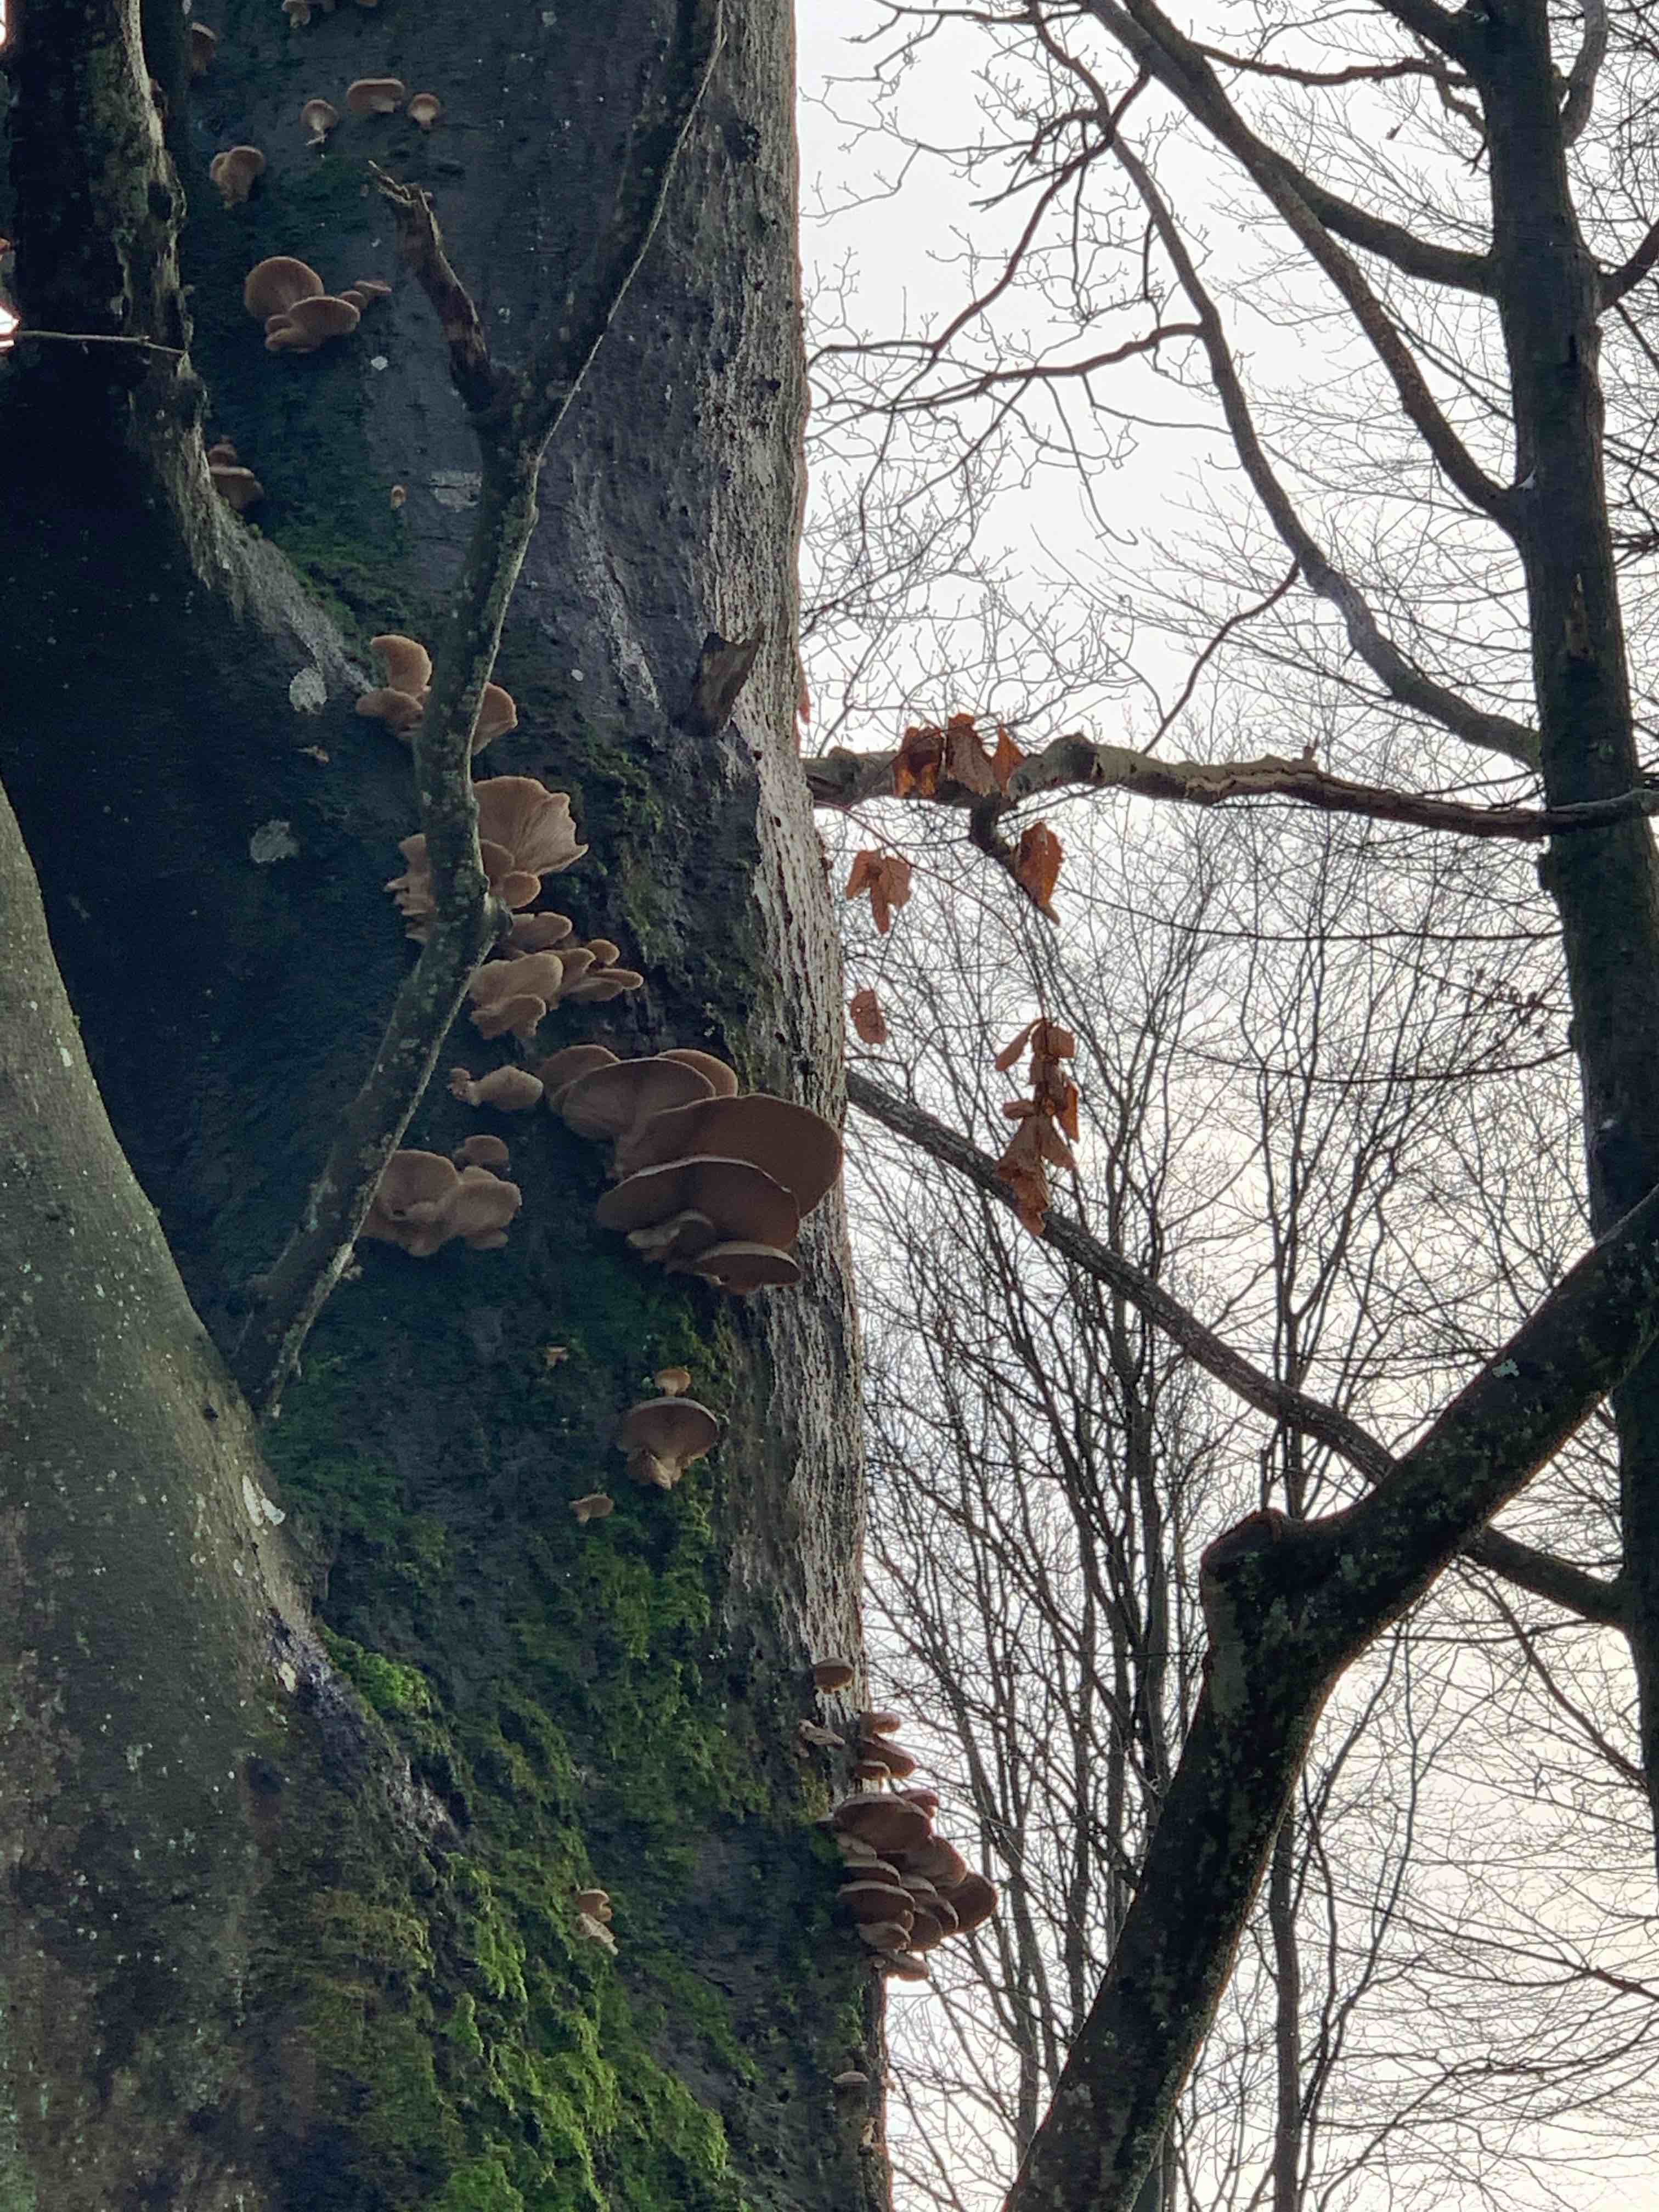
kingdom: Fungi
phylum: Basidiomycota
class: Agaricomycetes
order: Agaricales
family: Pleurotaceae
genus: Pleurotus
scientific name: Pleurotus ostreatus
